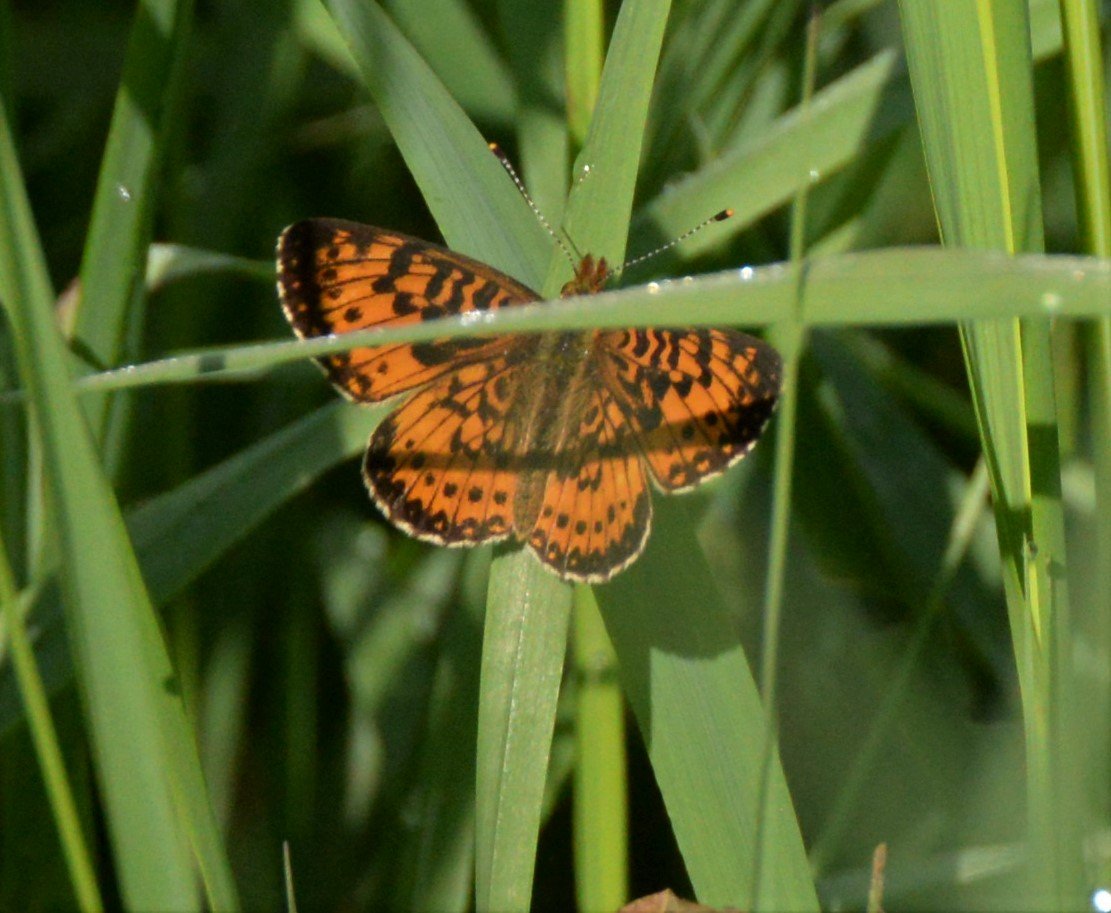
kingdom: Animalia
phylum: Arthropoda
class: Insecta
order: Lepidoptera
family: Nymphalidae
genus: Boloria
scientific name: Boloria selene
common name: Silver-bordered Fritillary
